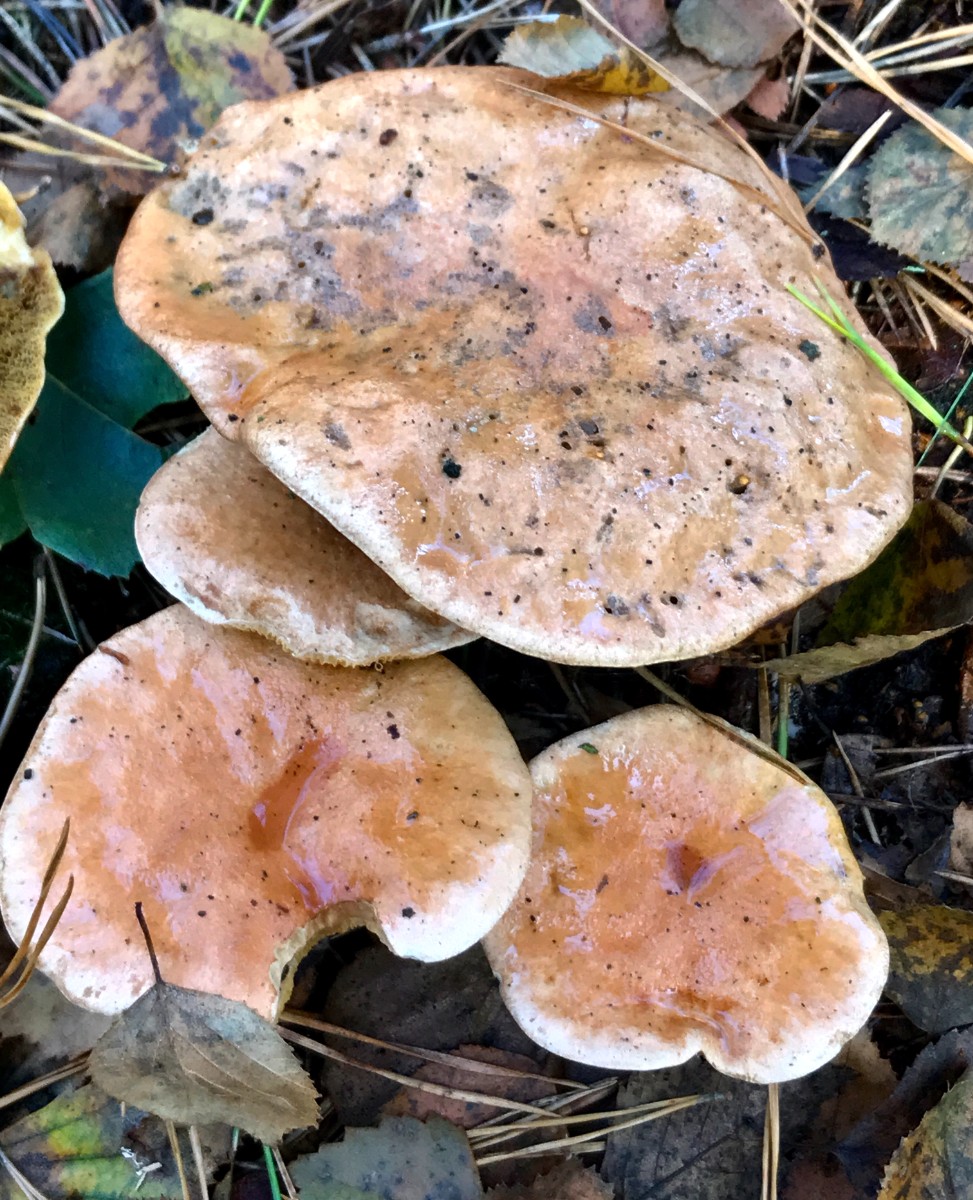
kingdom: Fungi
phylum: Basidiomycota
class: Agaricomycetes
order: Boletales
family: Suillaceae
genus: Suillus
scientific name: Suillus bovinus
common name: grovporet slimrørhat
